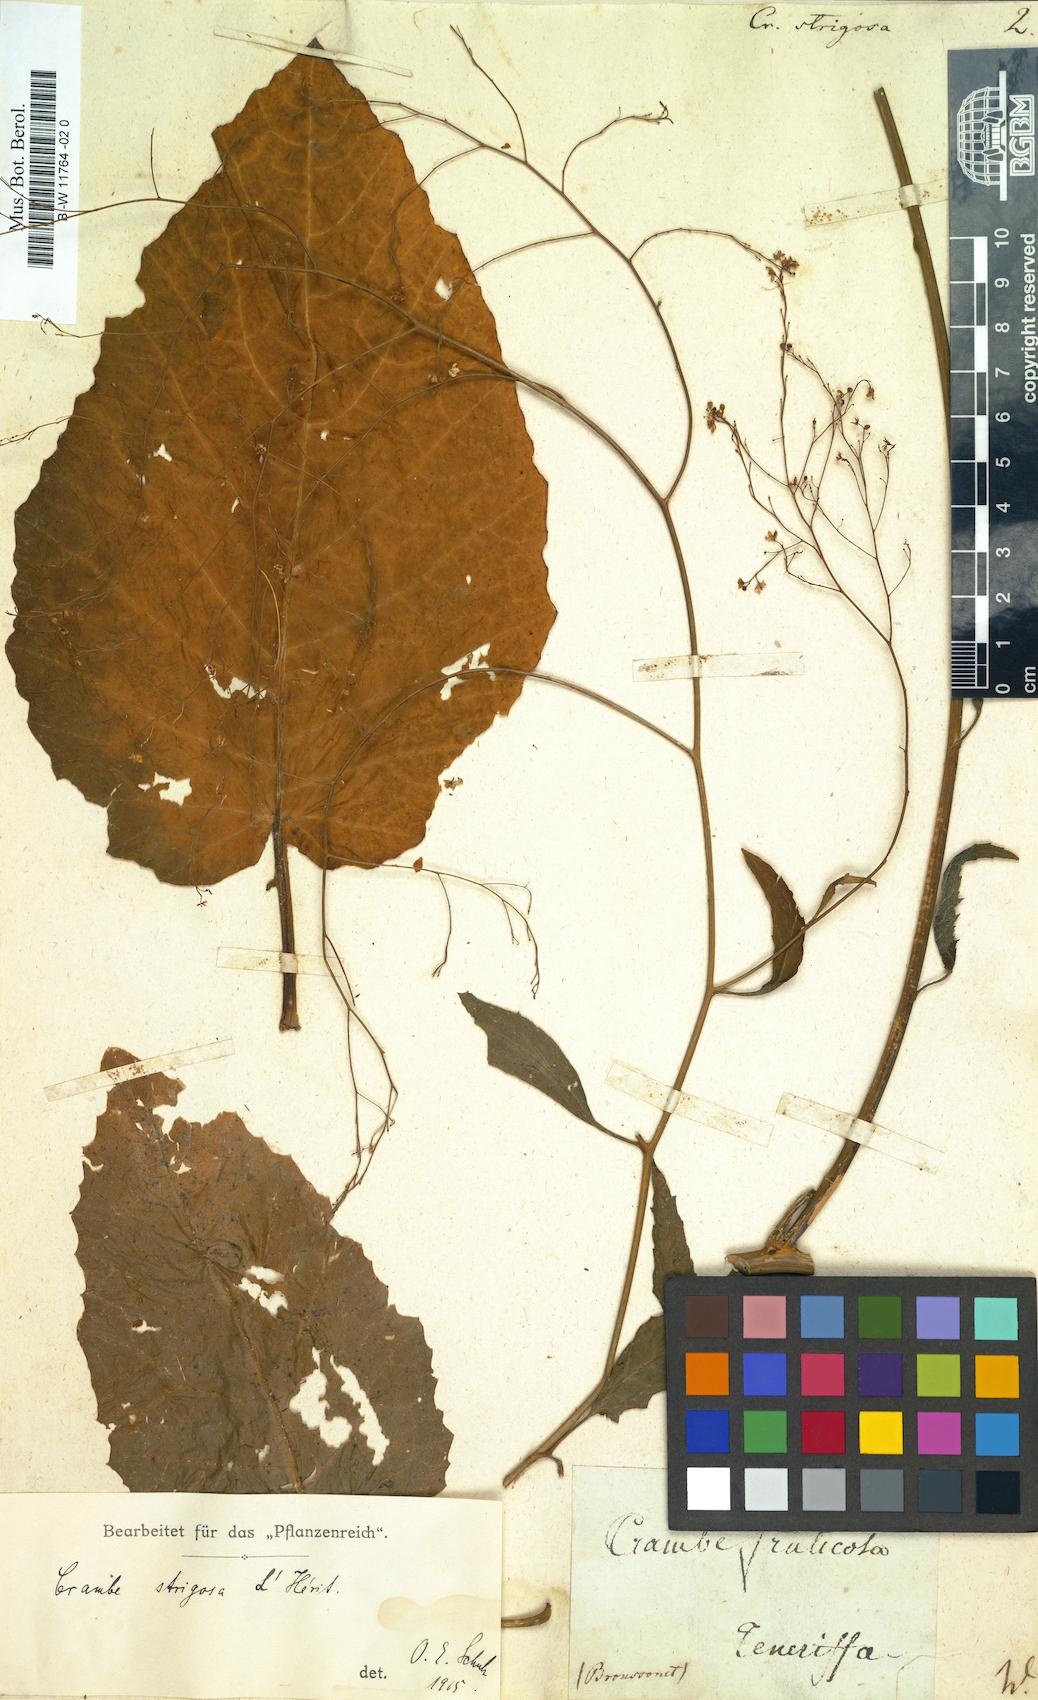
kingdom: Plantae
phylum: Tracheophyta
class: Magnoliopsida
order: Brassicales
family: Brassicaceae
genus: Crambe
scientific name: Crambe strigosa
